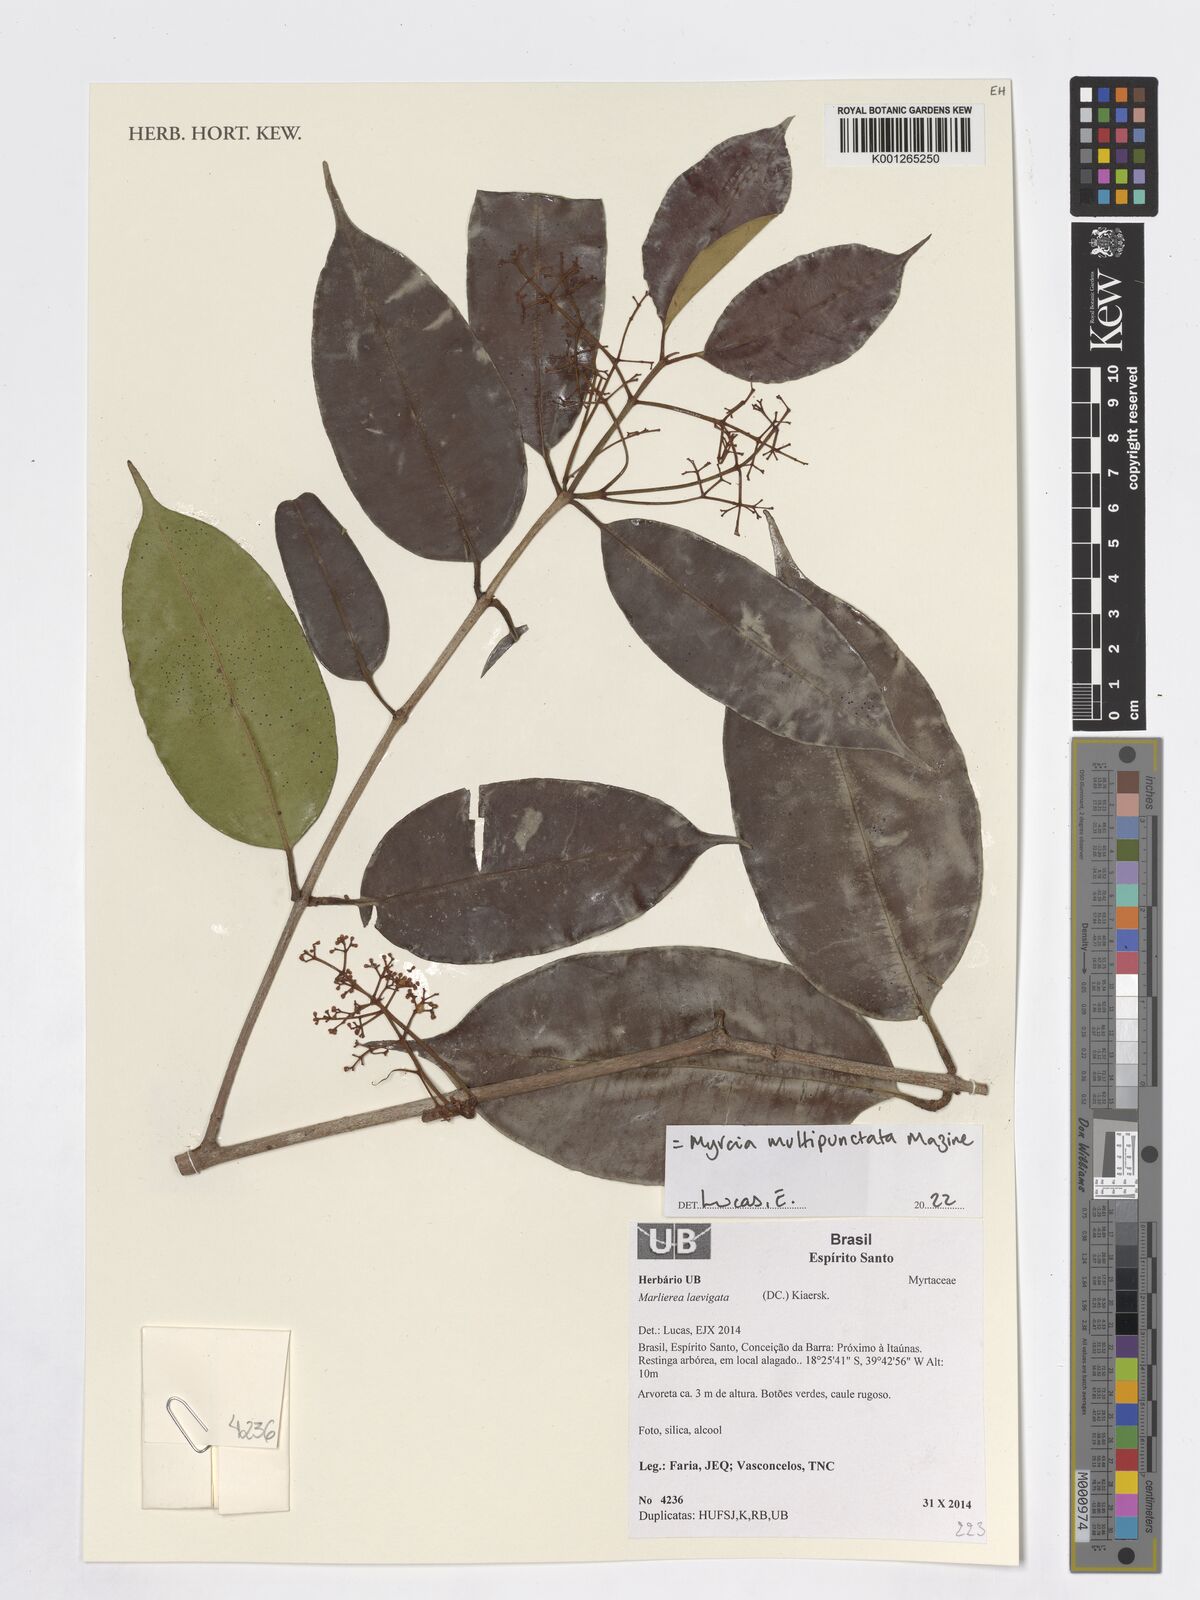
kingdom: Plantae
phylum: Tracheophyta
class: Magnoliopsida
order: Myrtales
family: Myrtaceae
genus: Myrcia
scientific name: Myrcia multipunctata
